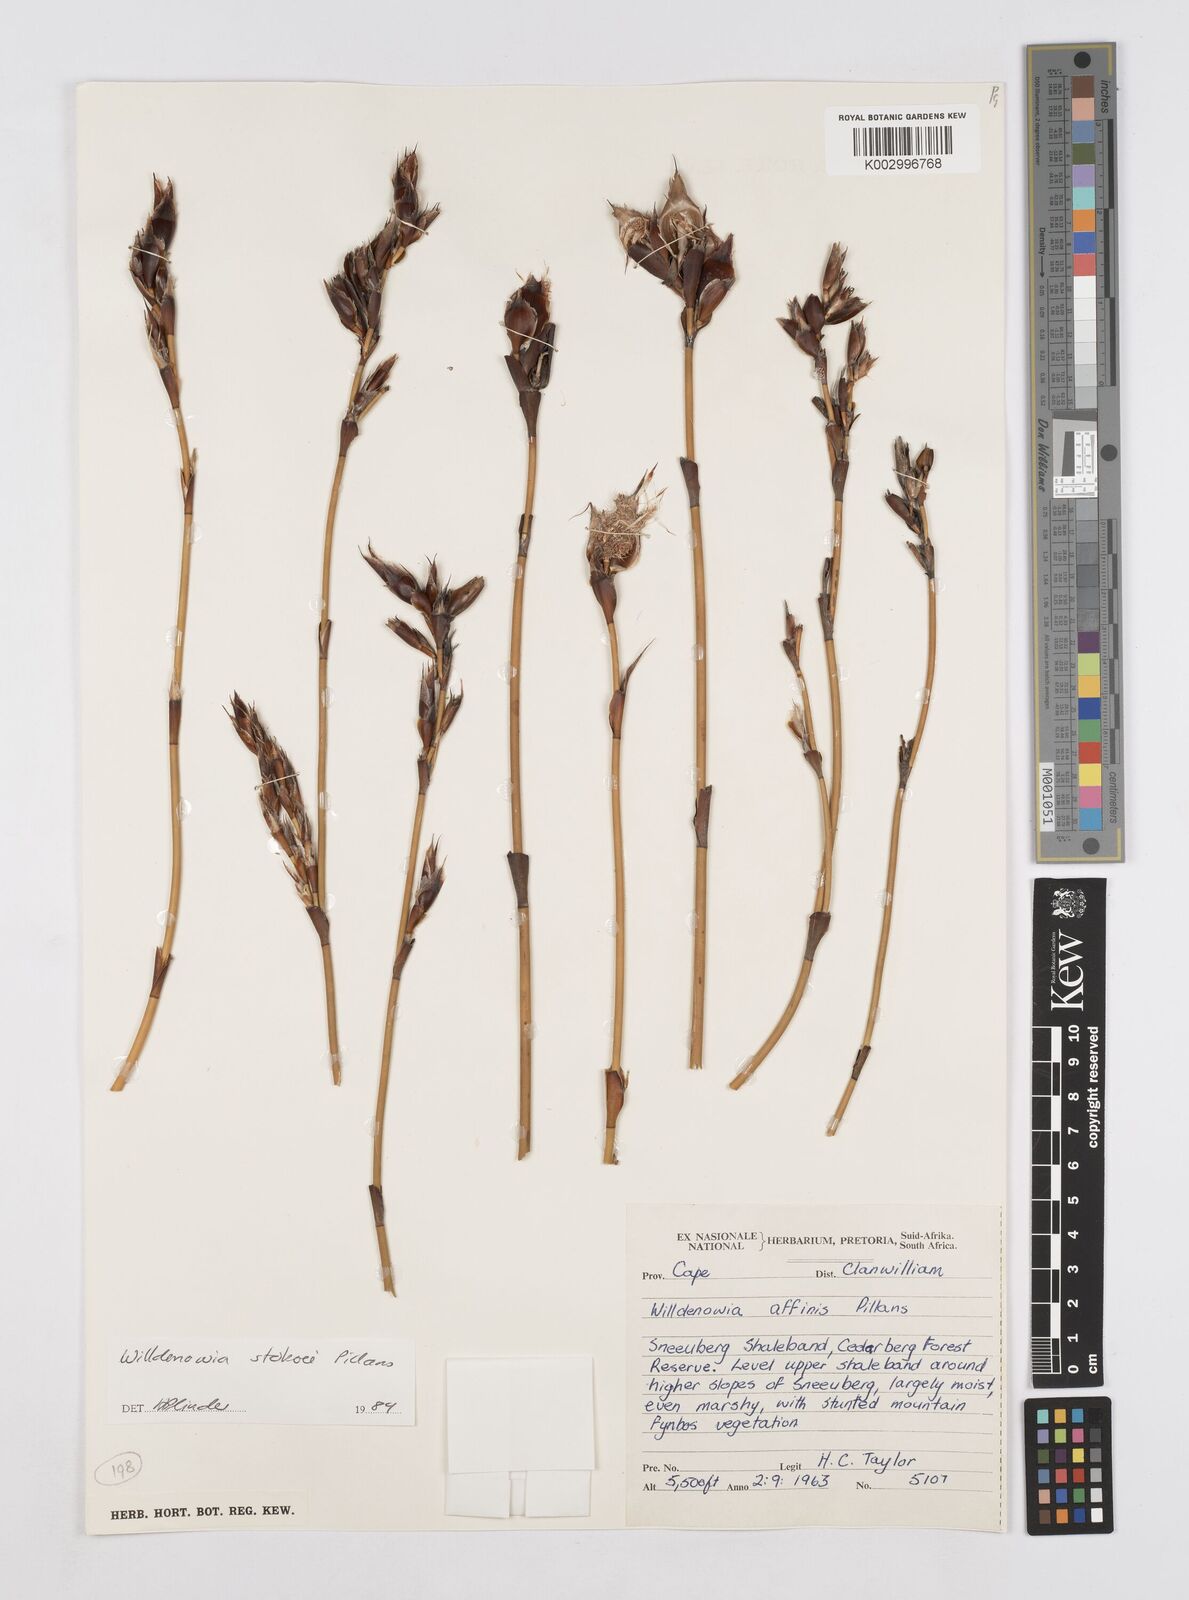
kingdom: Plantae
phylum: Tracheophyta
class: Liliopsida
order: Poales
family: Restionaceae
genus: Willdenowia
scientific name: Willdenowia stokoei
